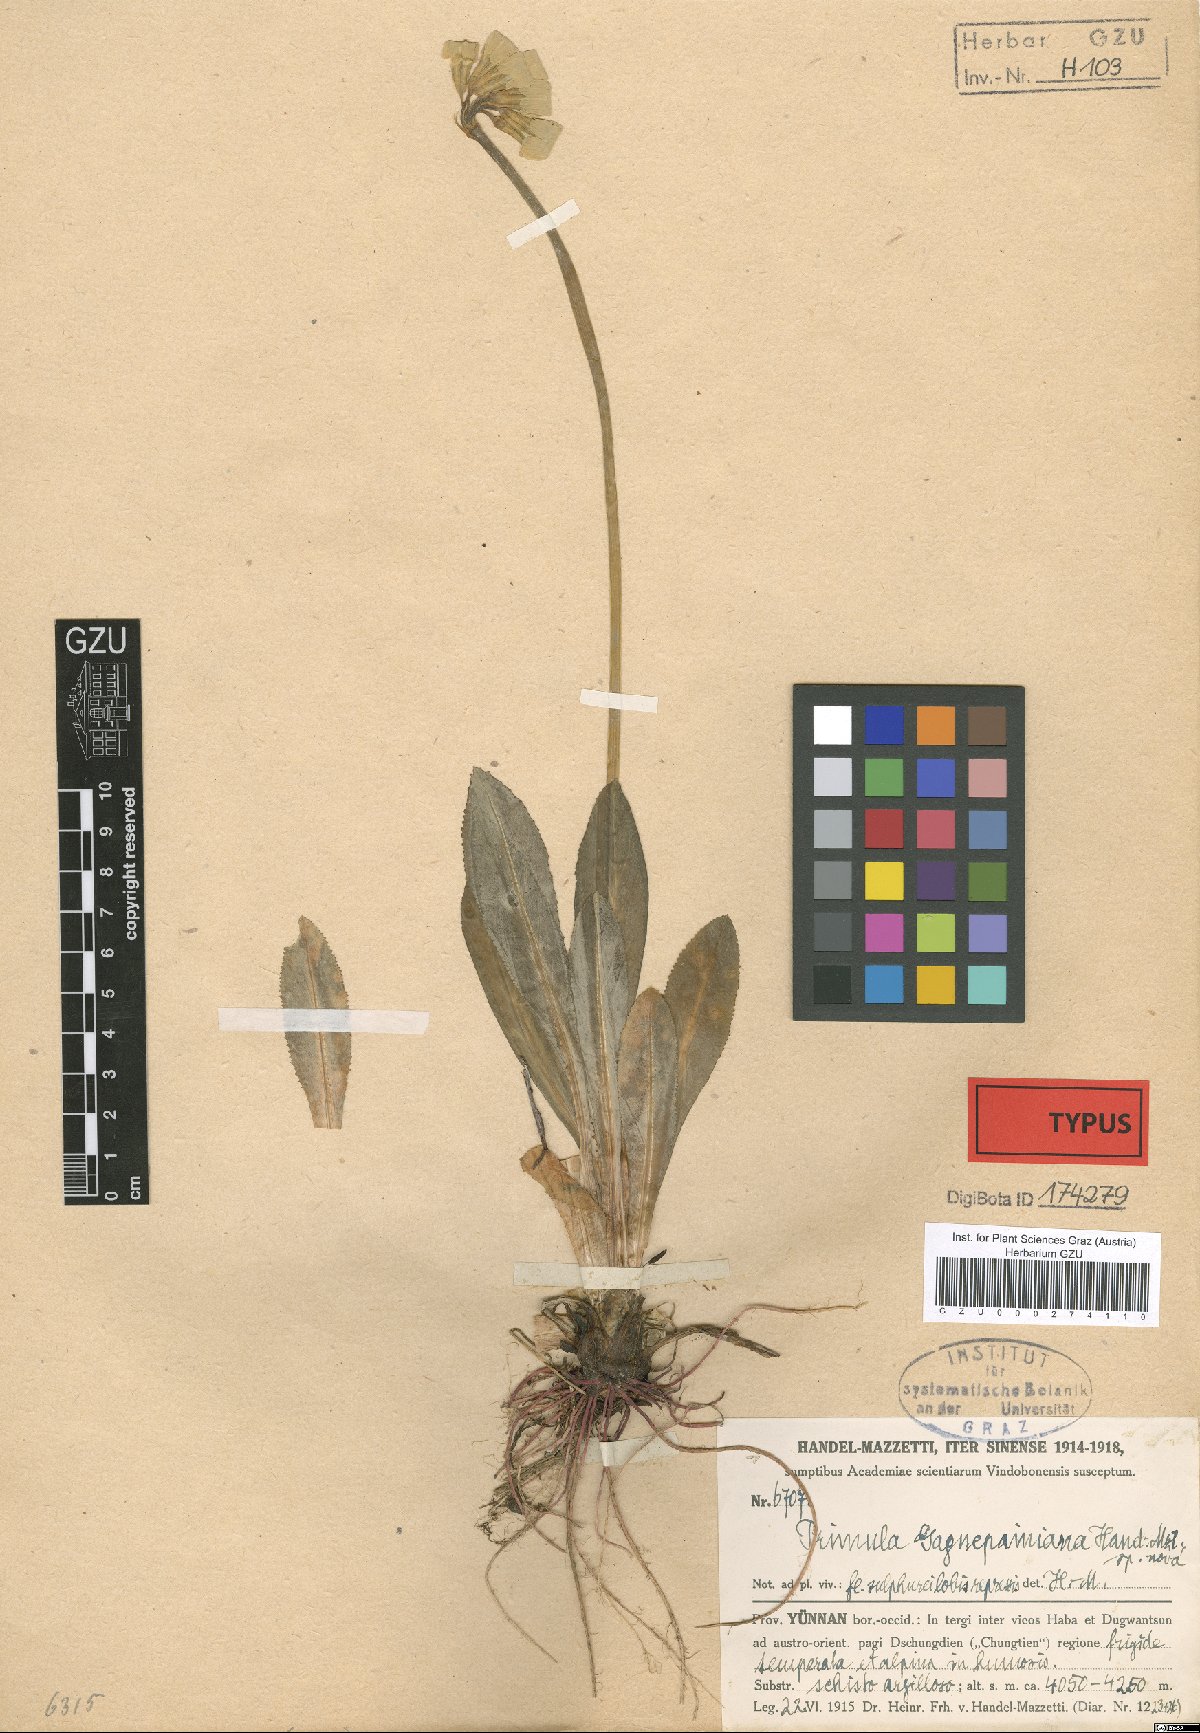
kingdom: Plantae
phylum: Tracheophyta
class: Magnoliopsida
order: Ericales
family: Primulaceae
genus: Primula
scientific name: Primula szechuanica
